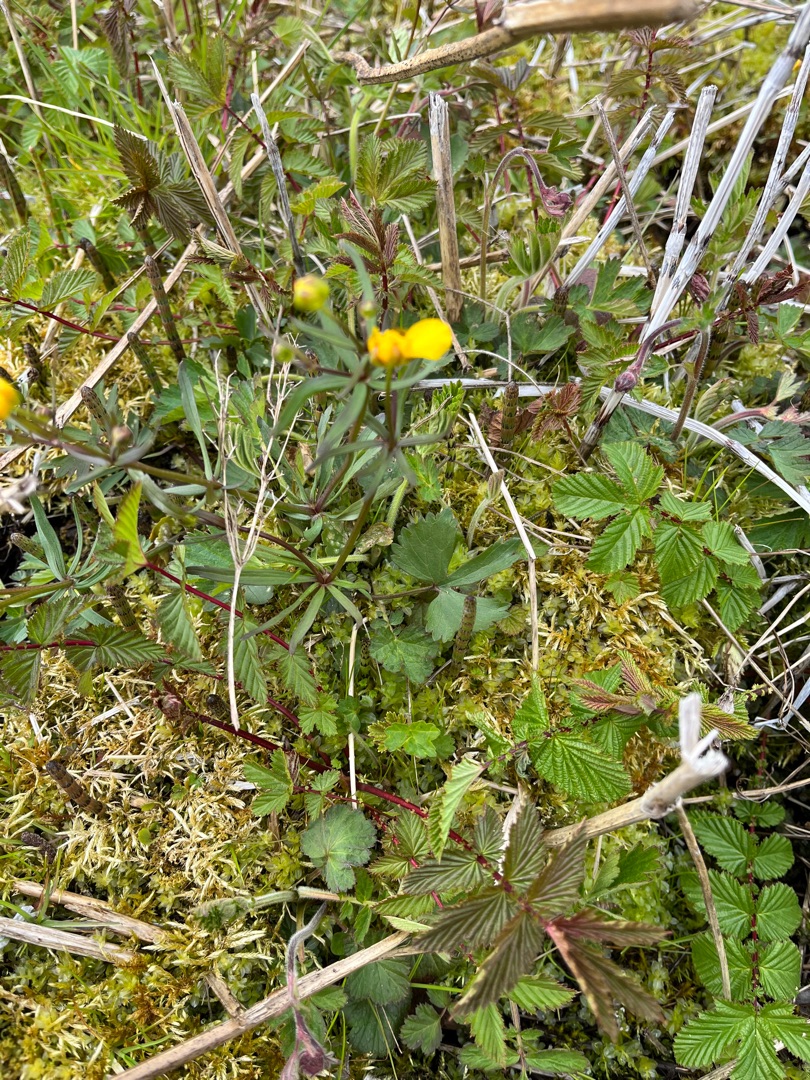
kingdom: Plantae
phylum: Tracheophyta
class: Magnoliopsida
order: Ranunculales
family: Ranunculaceae
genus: Ranunculus
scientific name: Ranunculus auricomus
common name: Nyrebladet ranunkel
